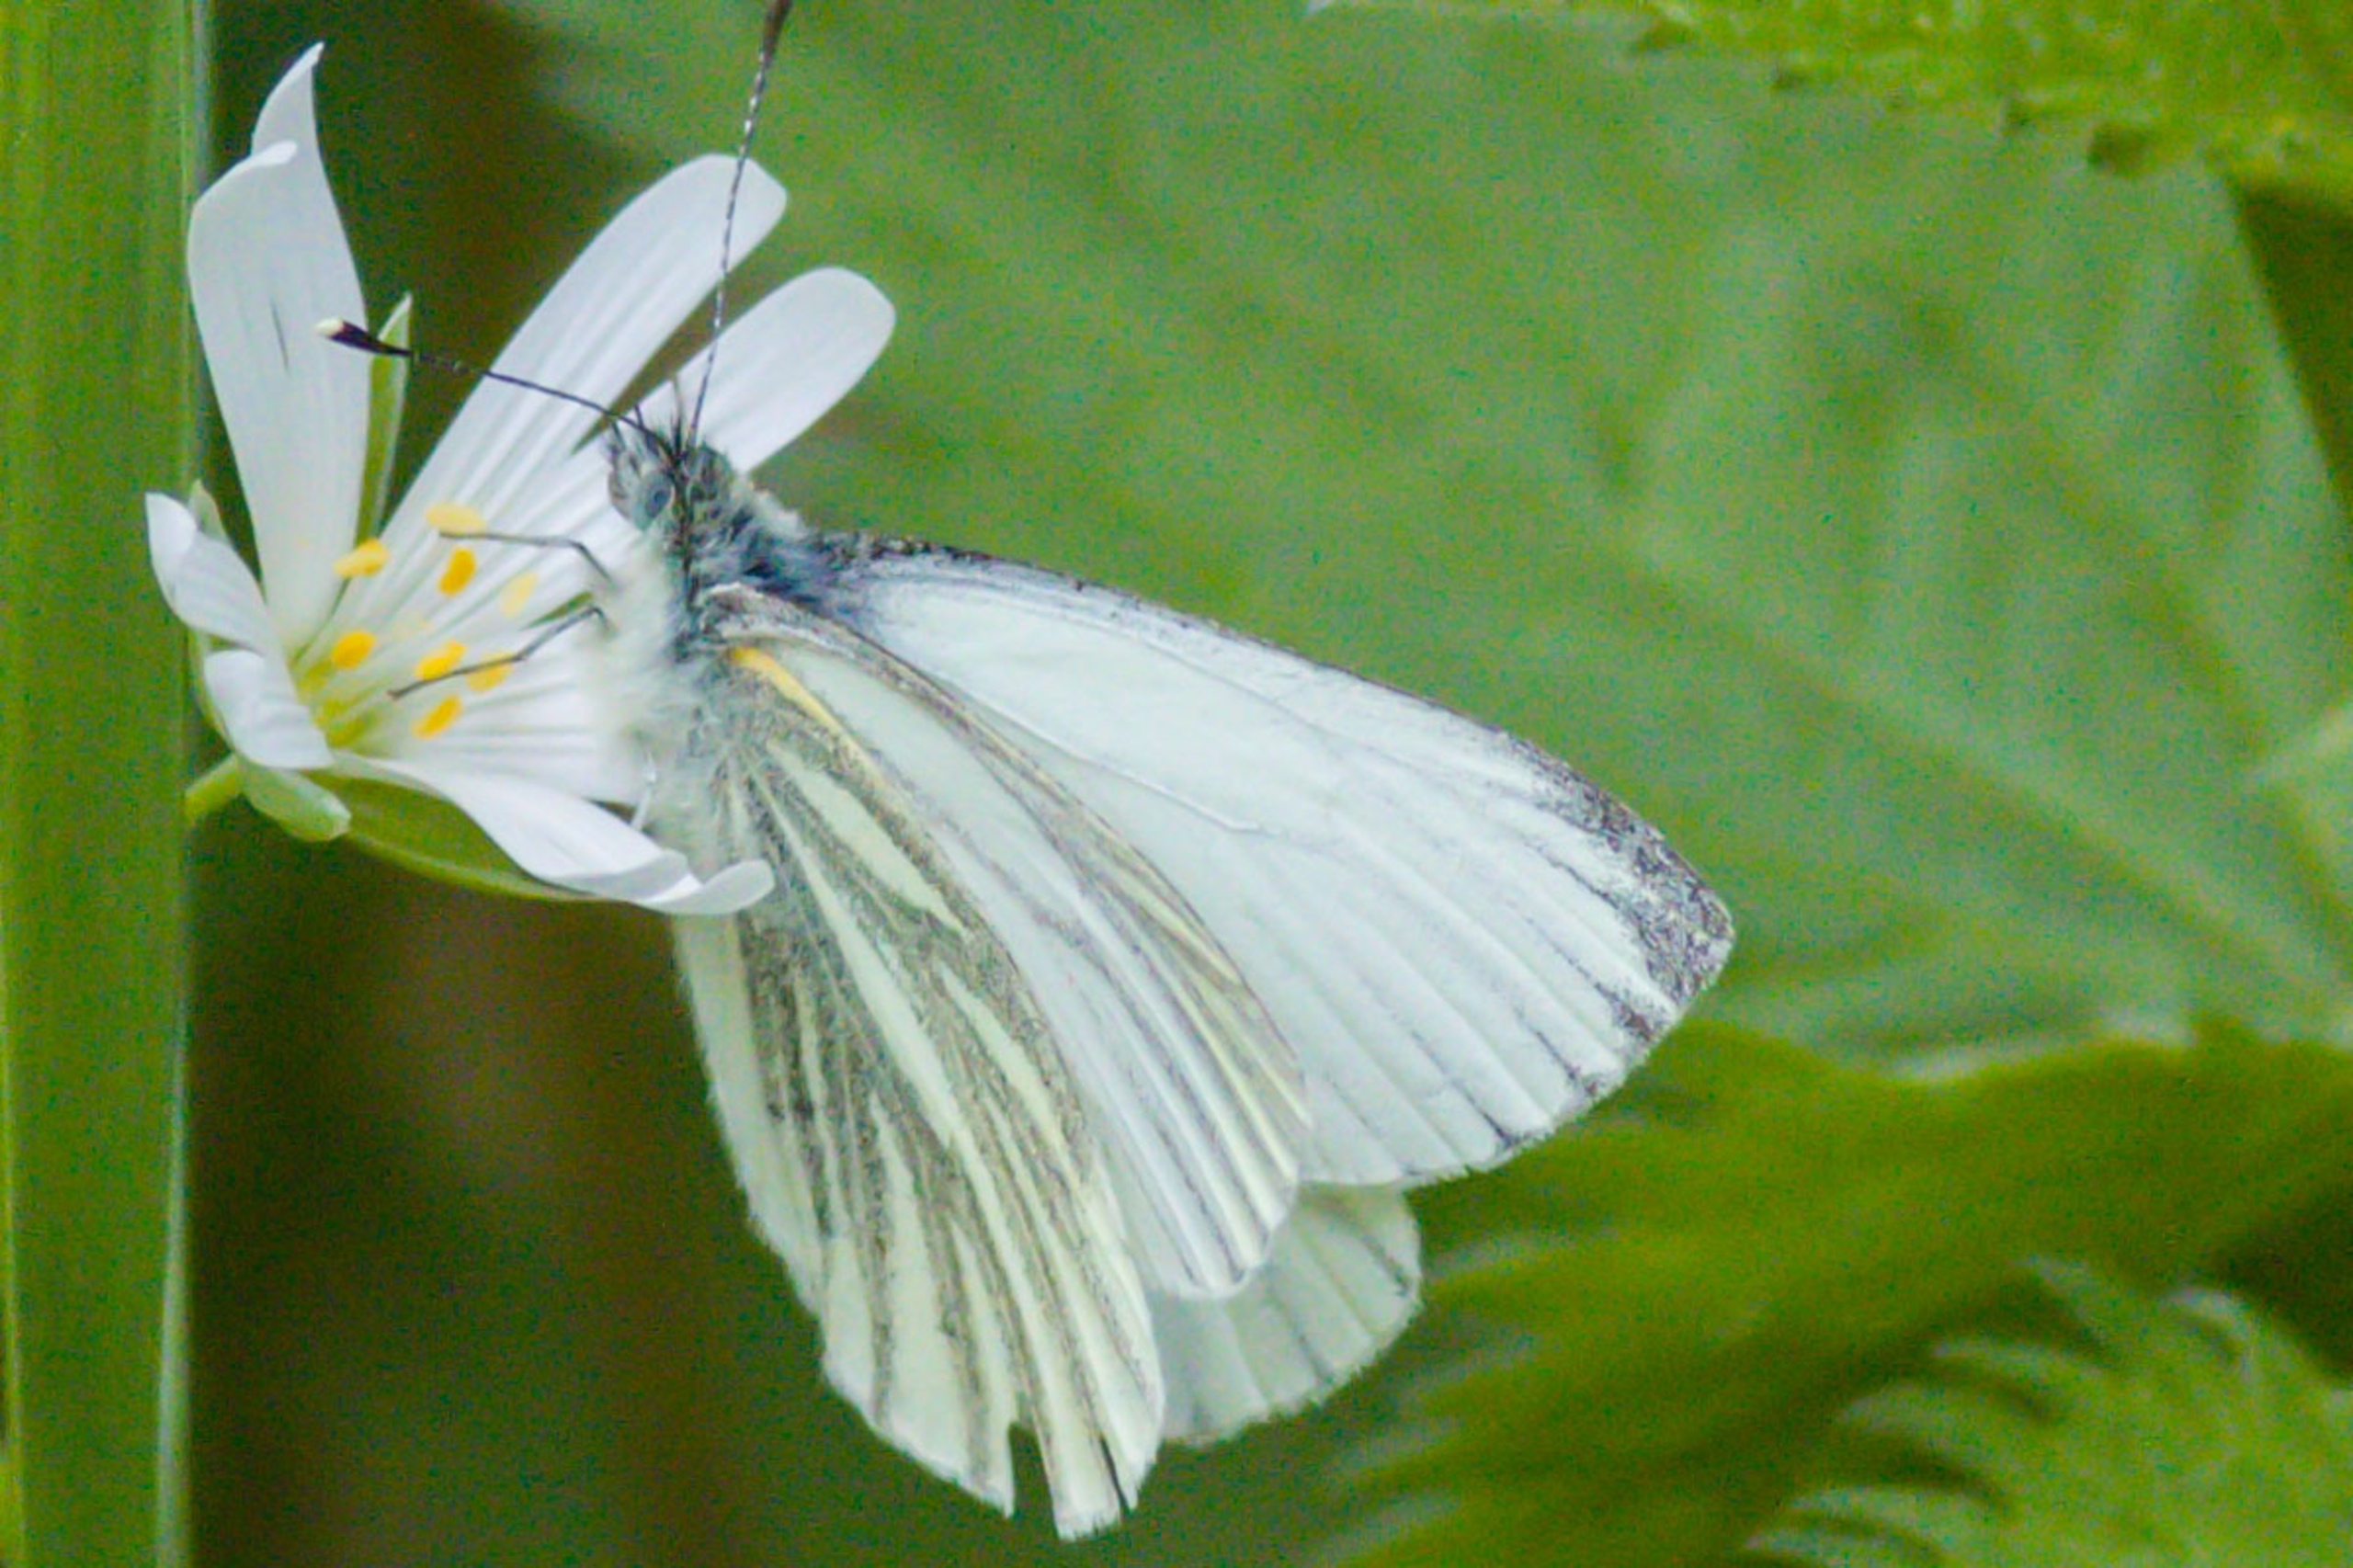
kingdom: Animalia
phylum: Arthropoda
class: Insecta
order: Lepidoptera
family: Pieridae
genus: Pieris
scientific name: Pieris napi
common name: Grønåret kålsommerfugl
